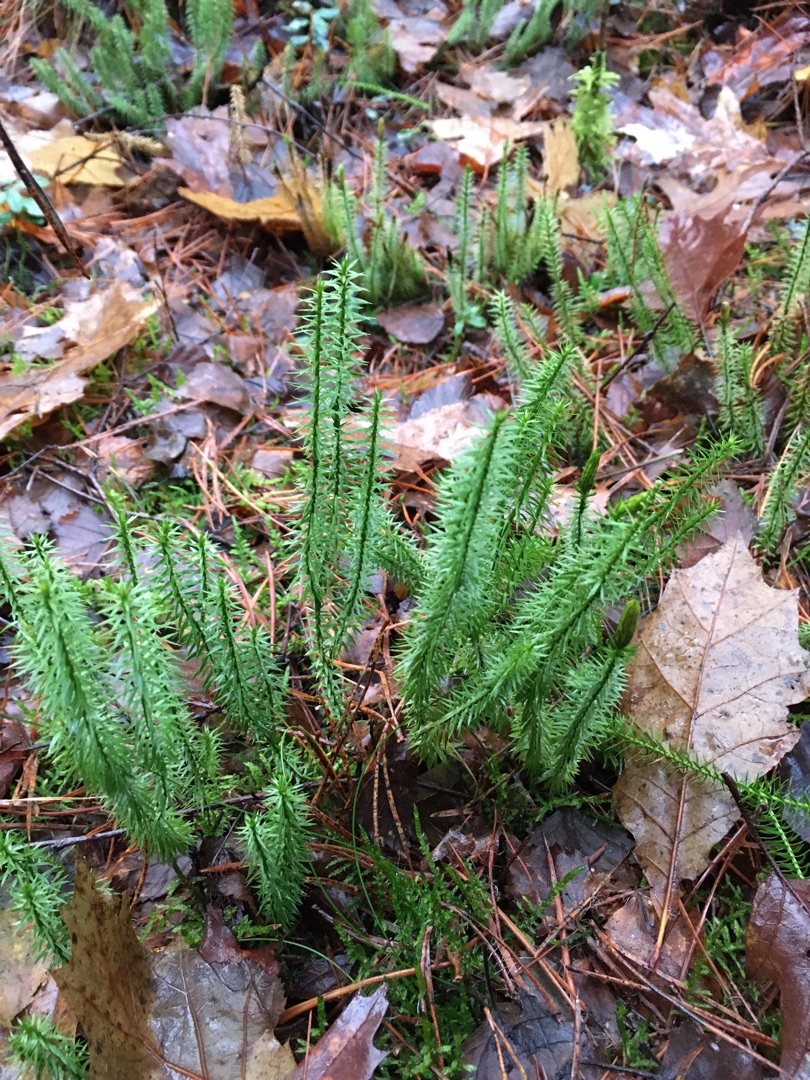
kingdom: Plantae
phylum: Tracheophyta
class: Lycopodiopsida
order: Lycopodiales
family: Lycopodiaceae
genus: Spinulum
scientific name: Spinulum annotinum
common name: Femradet ulvefod
